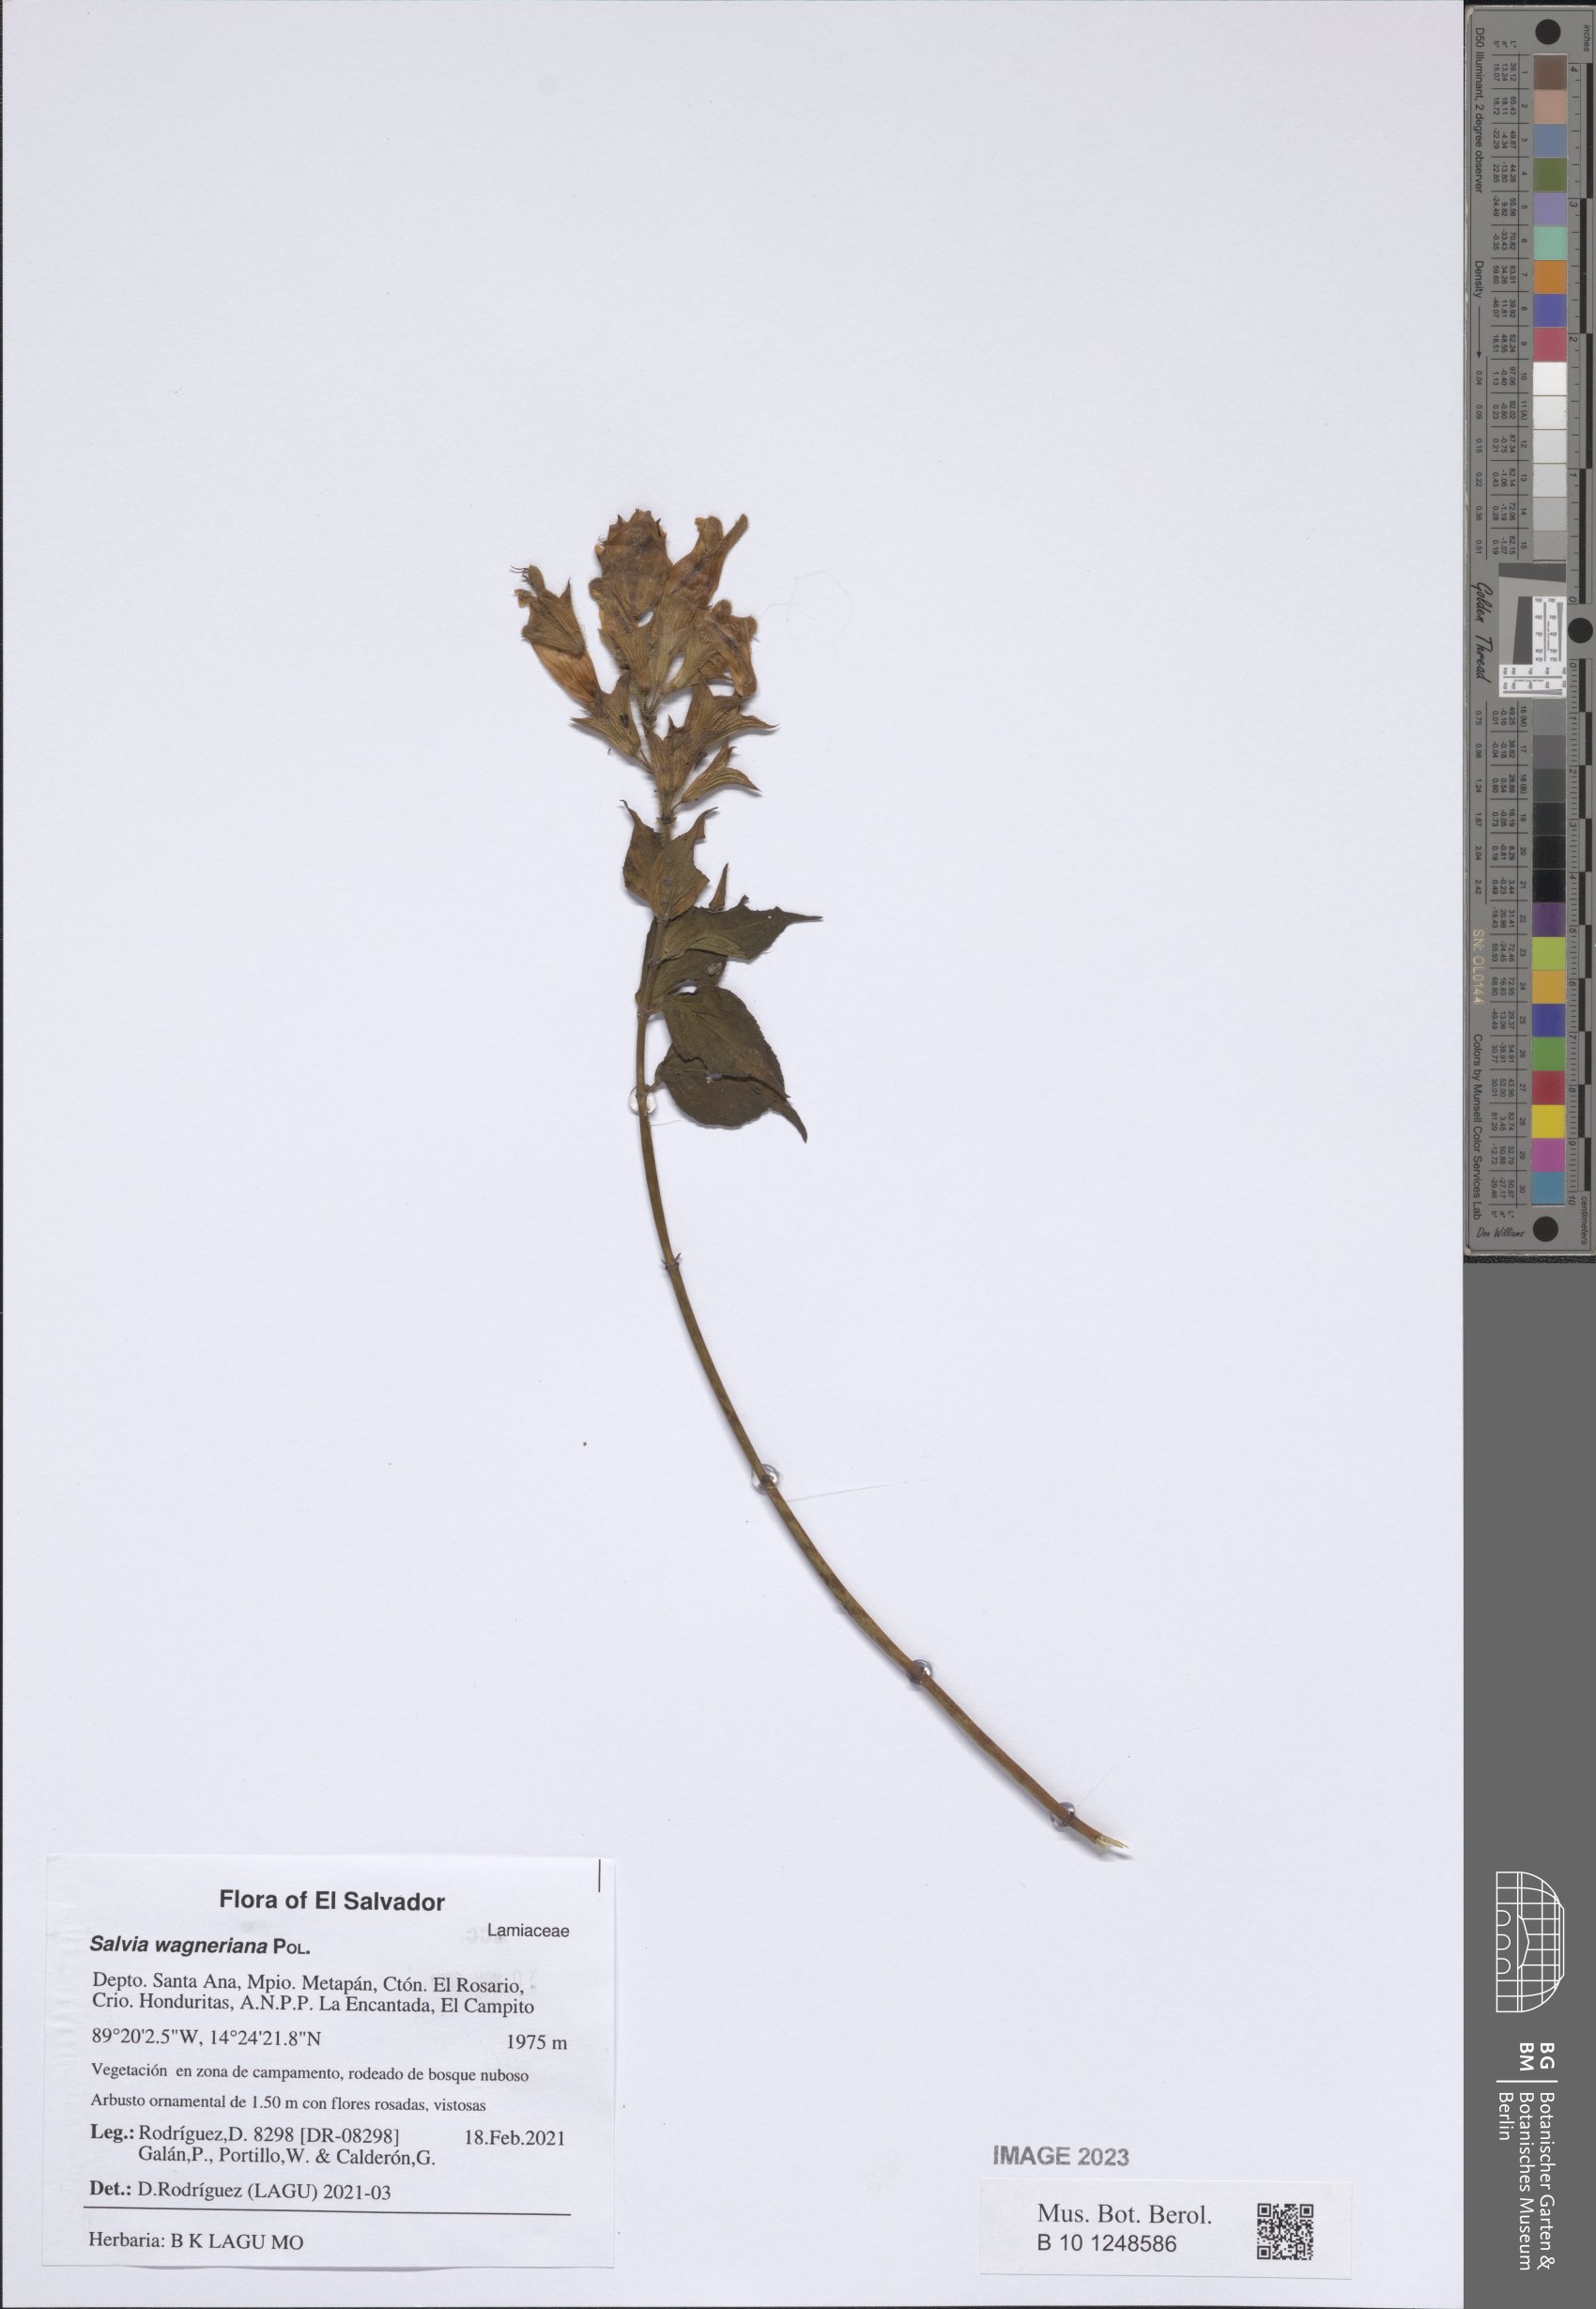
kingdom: Plantae
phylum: Tracheophyta
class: Magnoliopsida
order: Lamiales
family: Lamiaceae
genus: Salvia
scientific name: Salvia wagneriana
